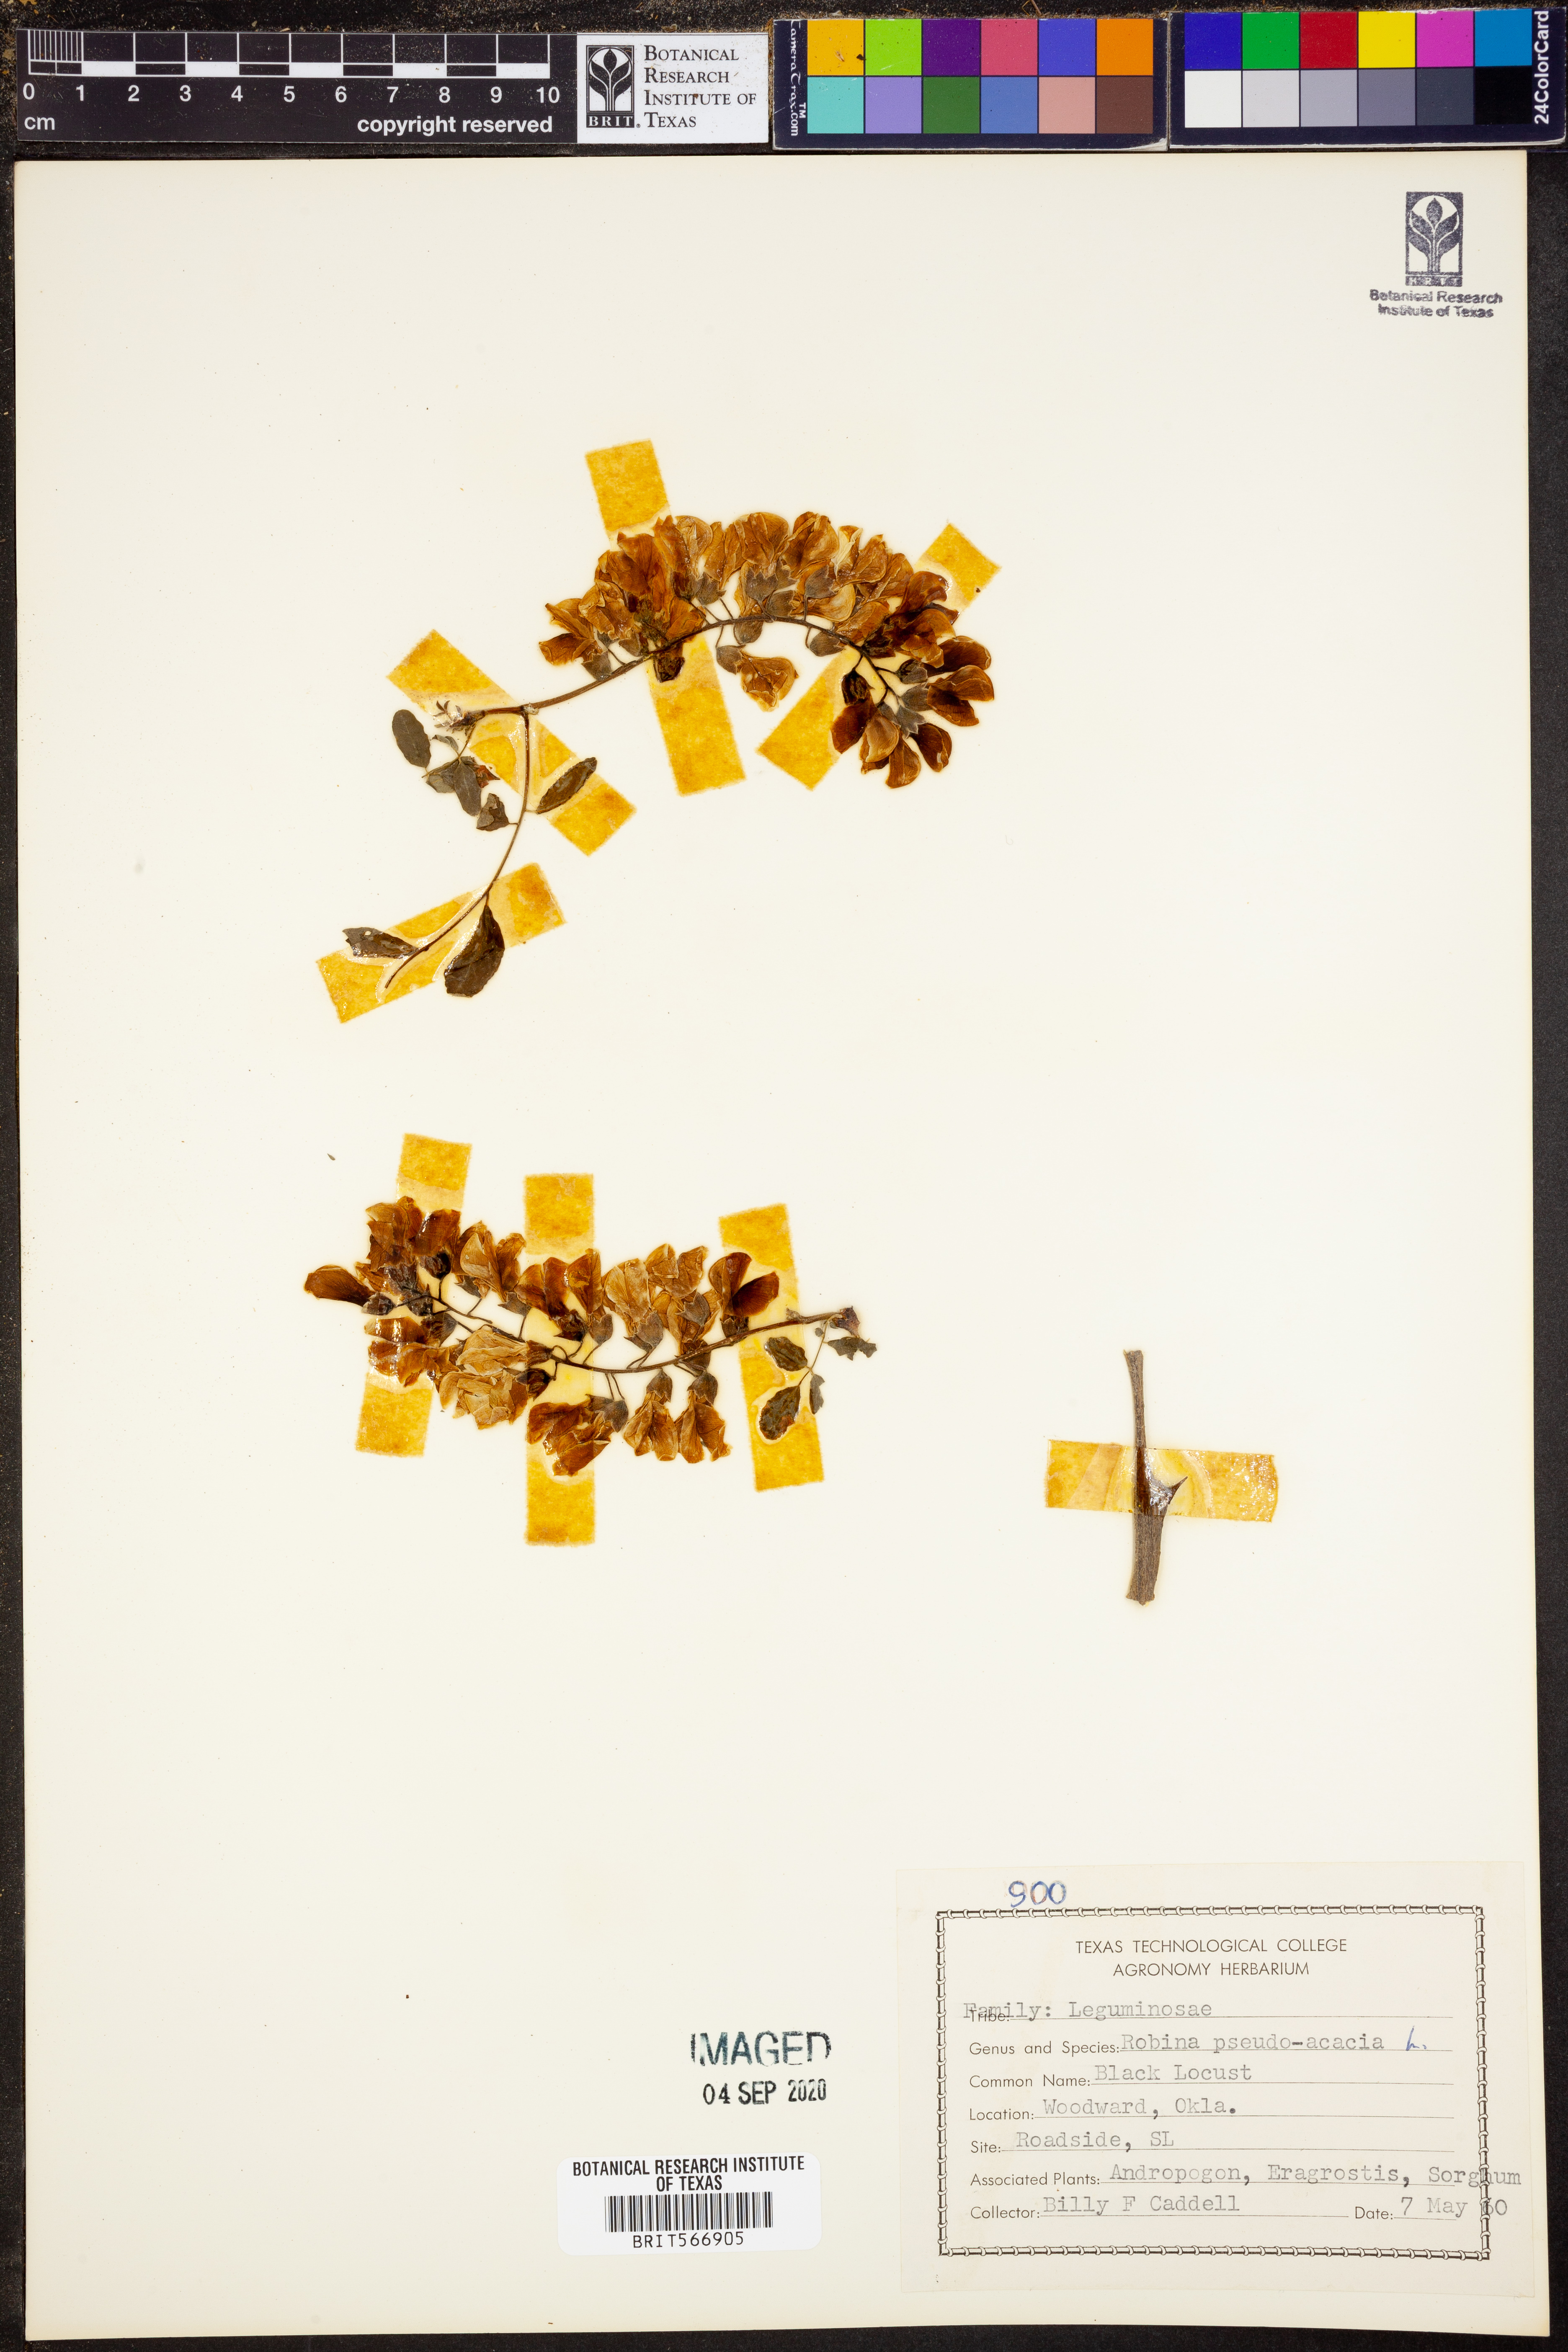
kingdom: Plantae
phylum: Tracheophyta
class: Magnoliopsida
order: Fabales
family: Fabaceae
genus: Robinia
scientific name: Robinia pseudoacacia
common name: Black locust
